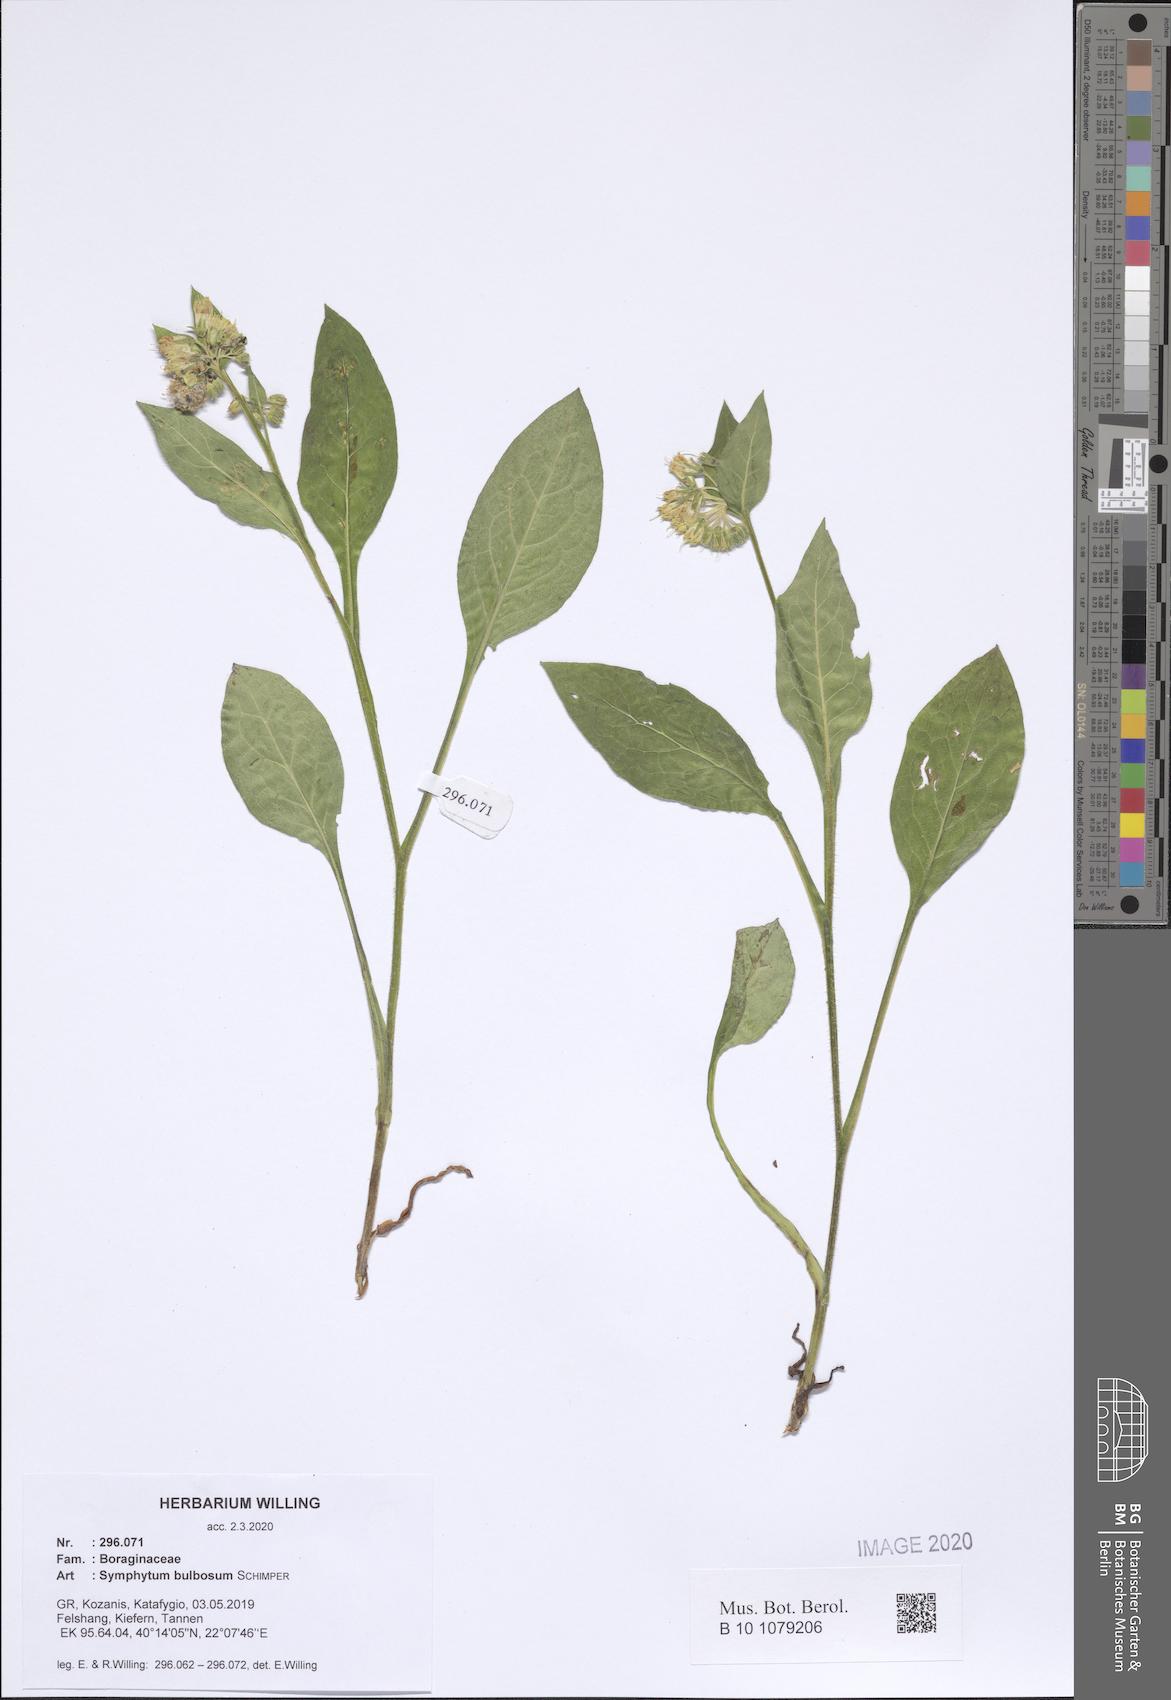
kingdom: Plantae
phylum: Tracheophyta
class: Magnoliopsida
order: Boraginales
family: Boraginaceae
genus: Symphytum
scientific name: Symphytum bulbosum
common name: Bulbous comfrey
